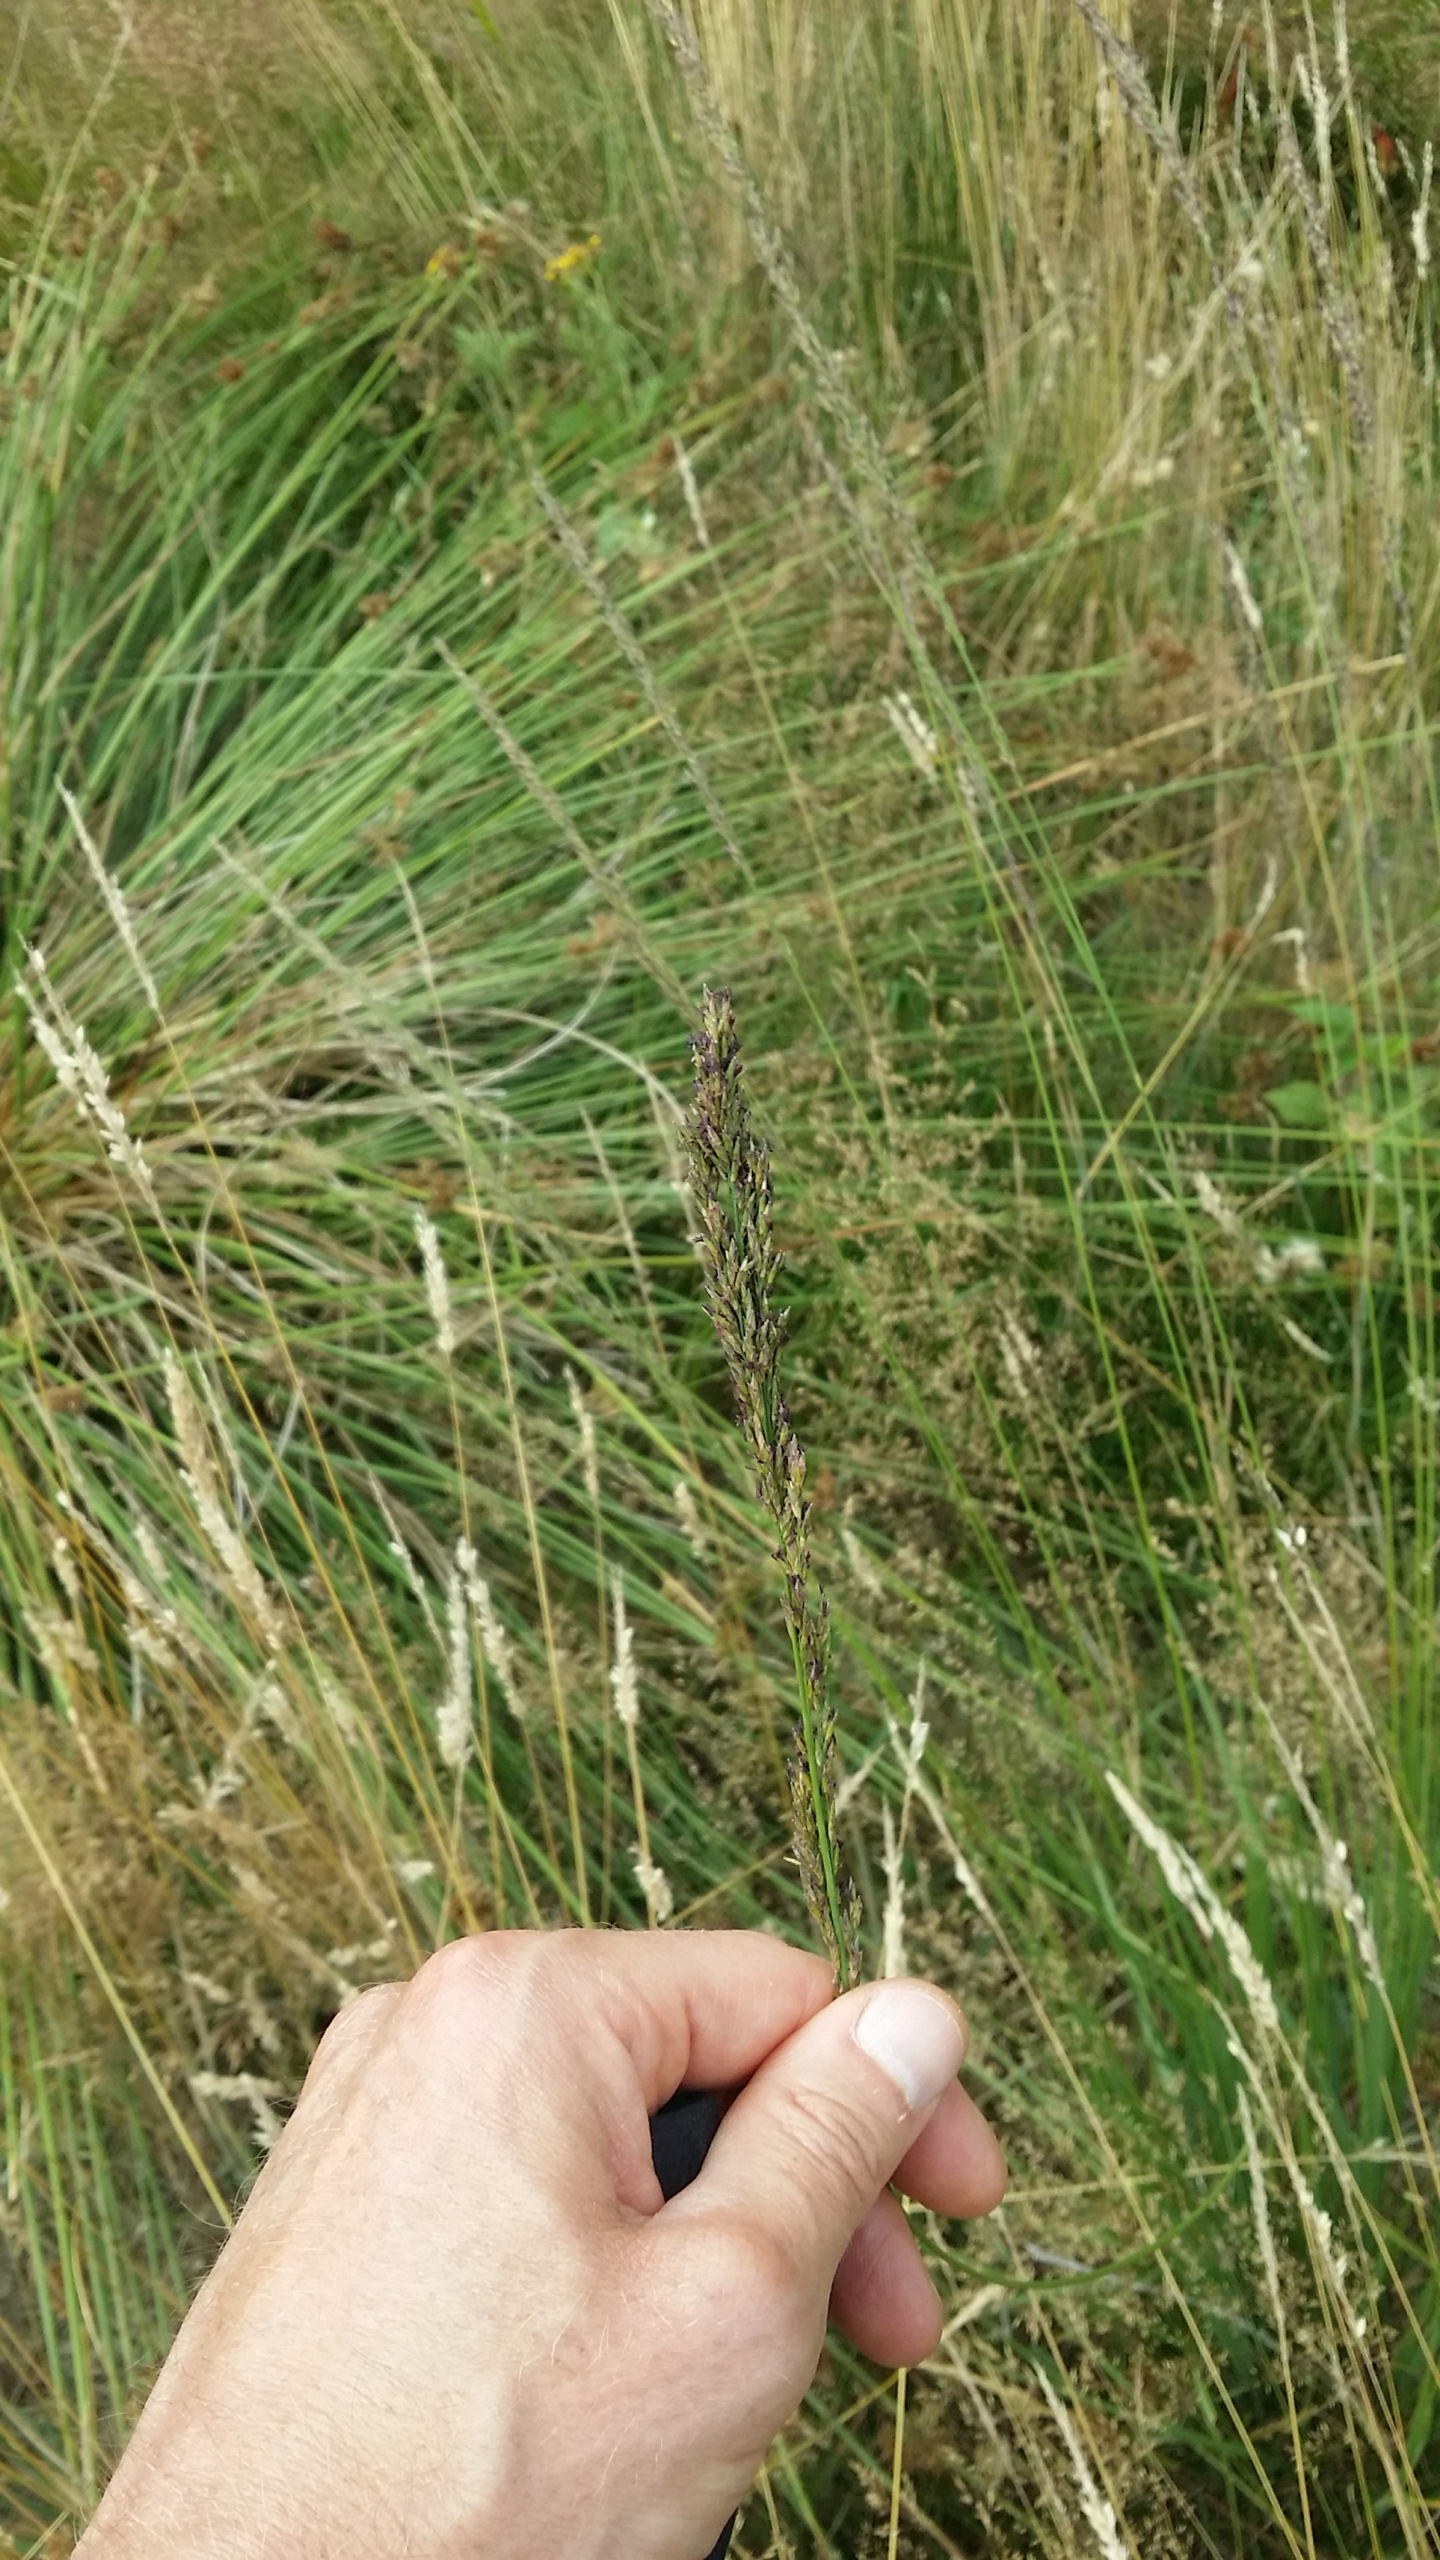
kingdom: Plantae
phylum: Tracheophyta
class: Liliopsida
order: Poales
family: Poaceae
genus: Molinia
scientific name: Molinia caerulea
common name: Blåtop
